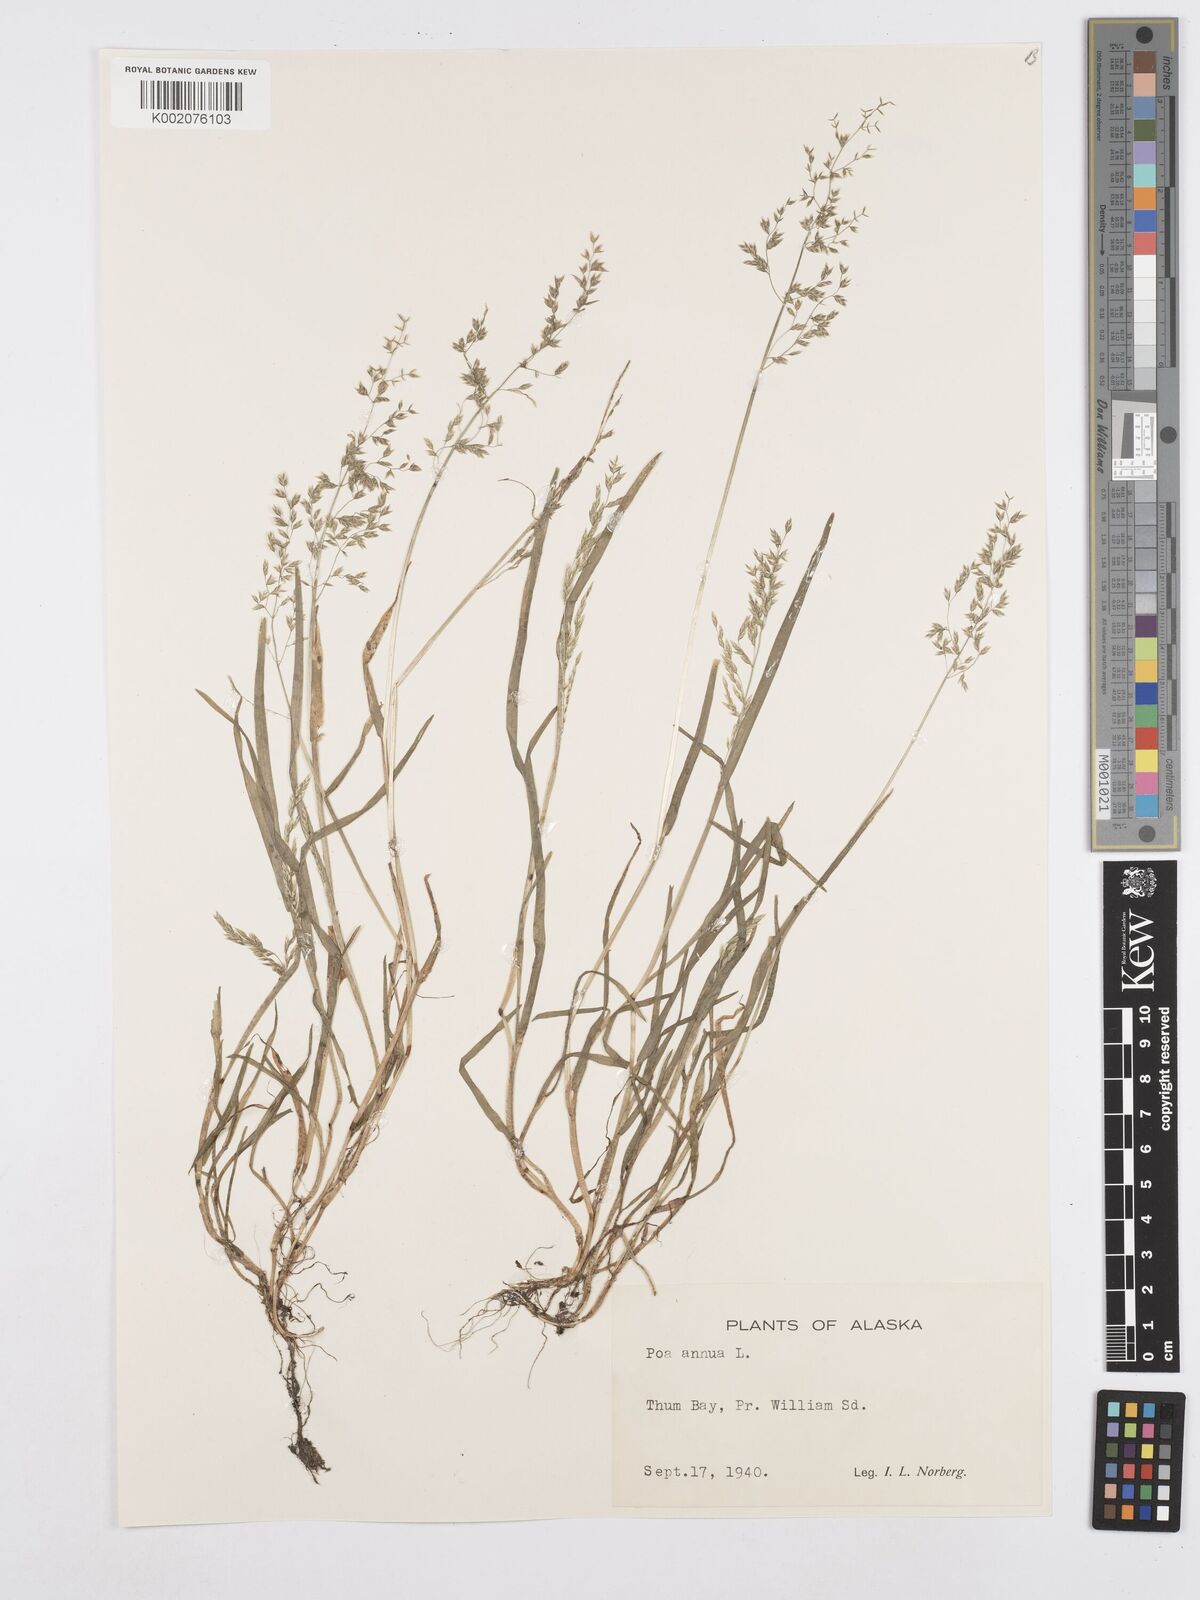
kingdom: Plantae
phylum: Tracheophyta
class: Liliopsida
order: Poales
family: Poaceae
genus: Poa
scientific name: Poa annua
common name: Annual bluegrass
